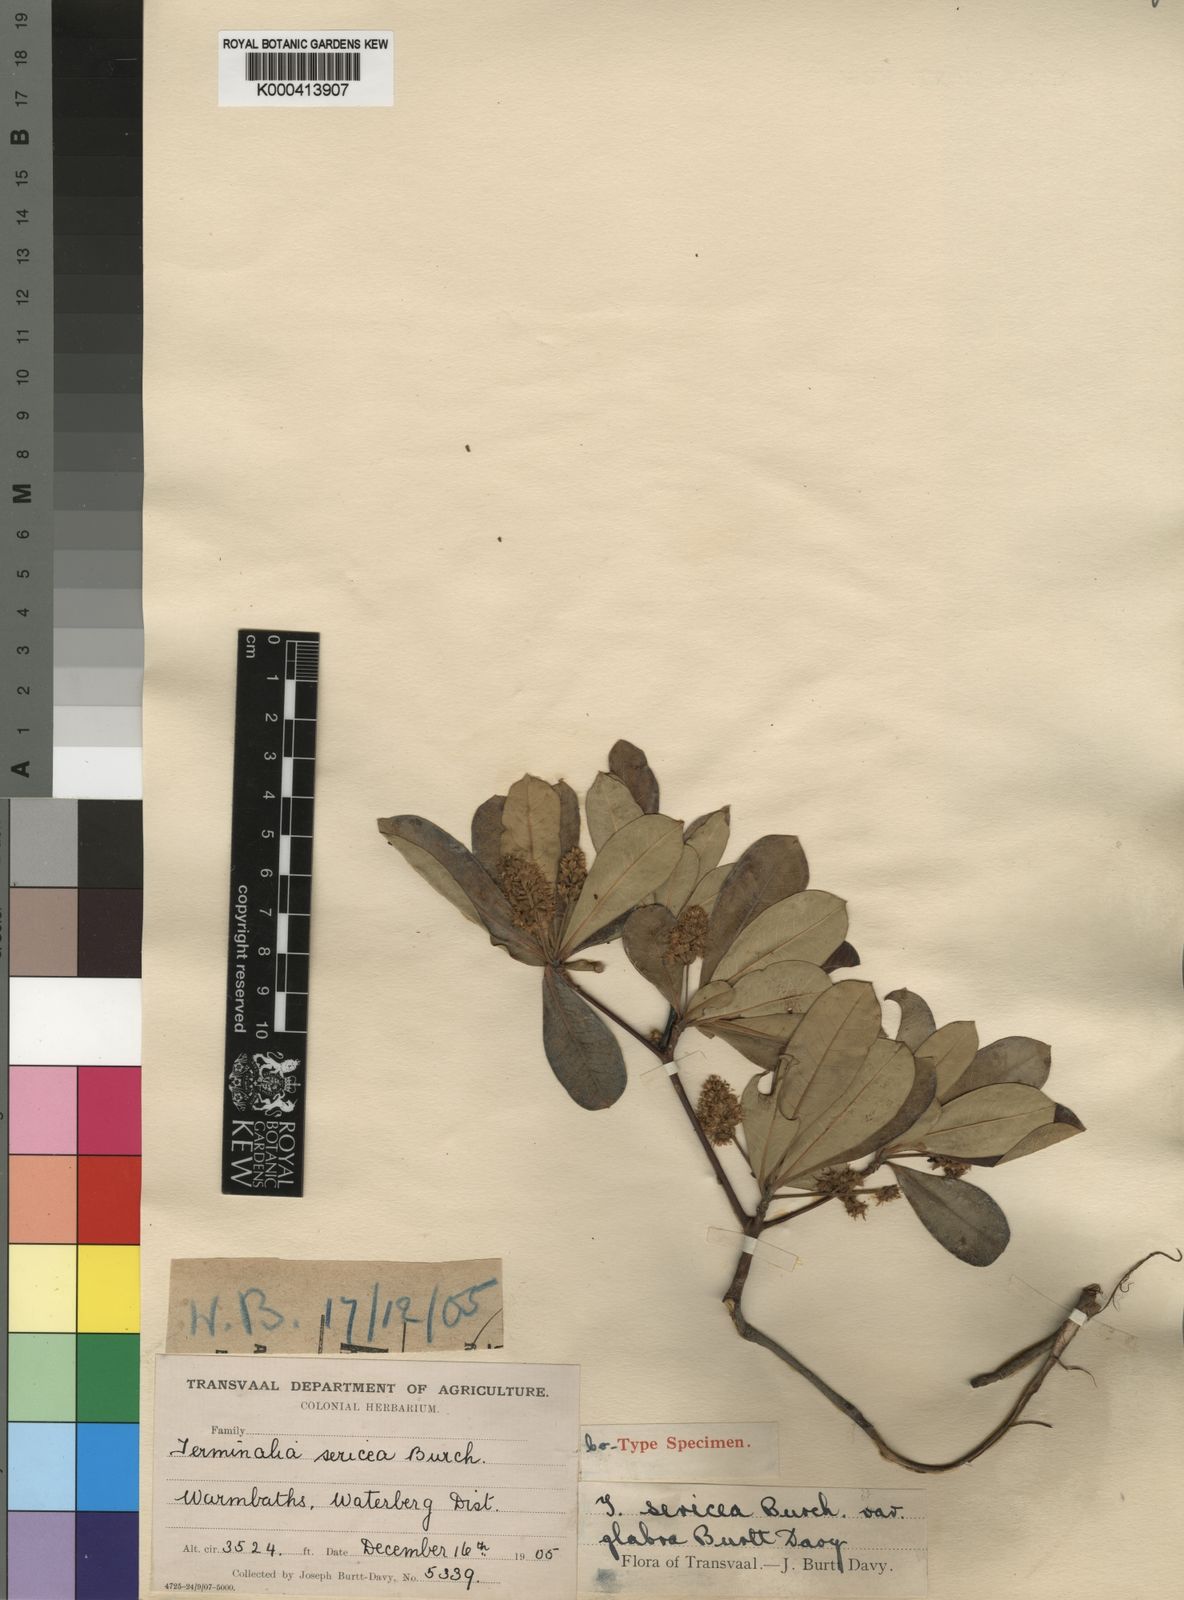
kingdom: Plantae
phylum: Tracheophyta
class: Magnoliopsida
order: Myrtales
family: Combretaceae
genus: Terminalia
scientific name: Terminalia sericea
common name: Clusterleaf
